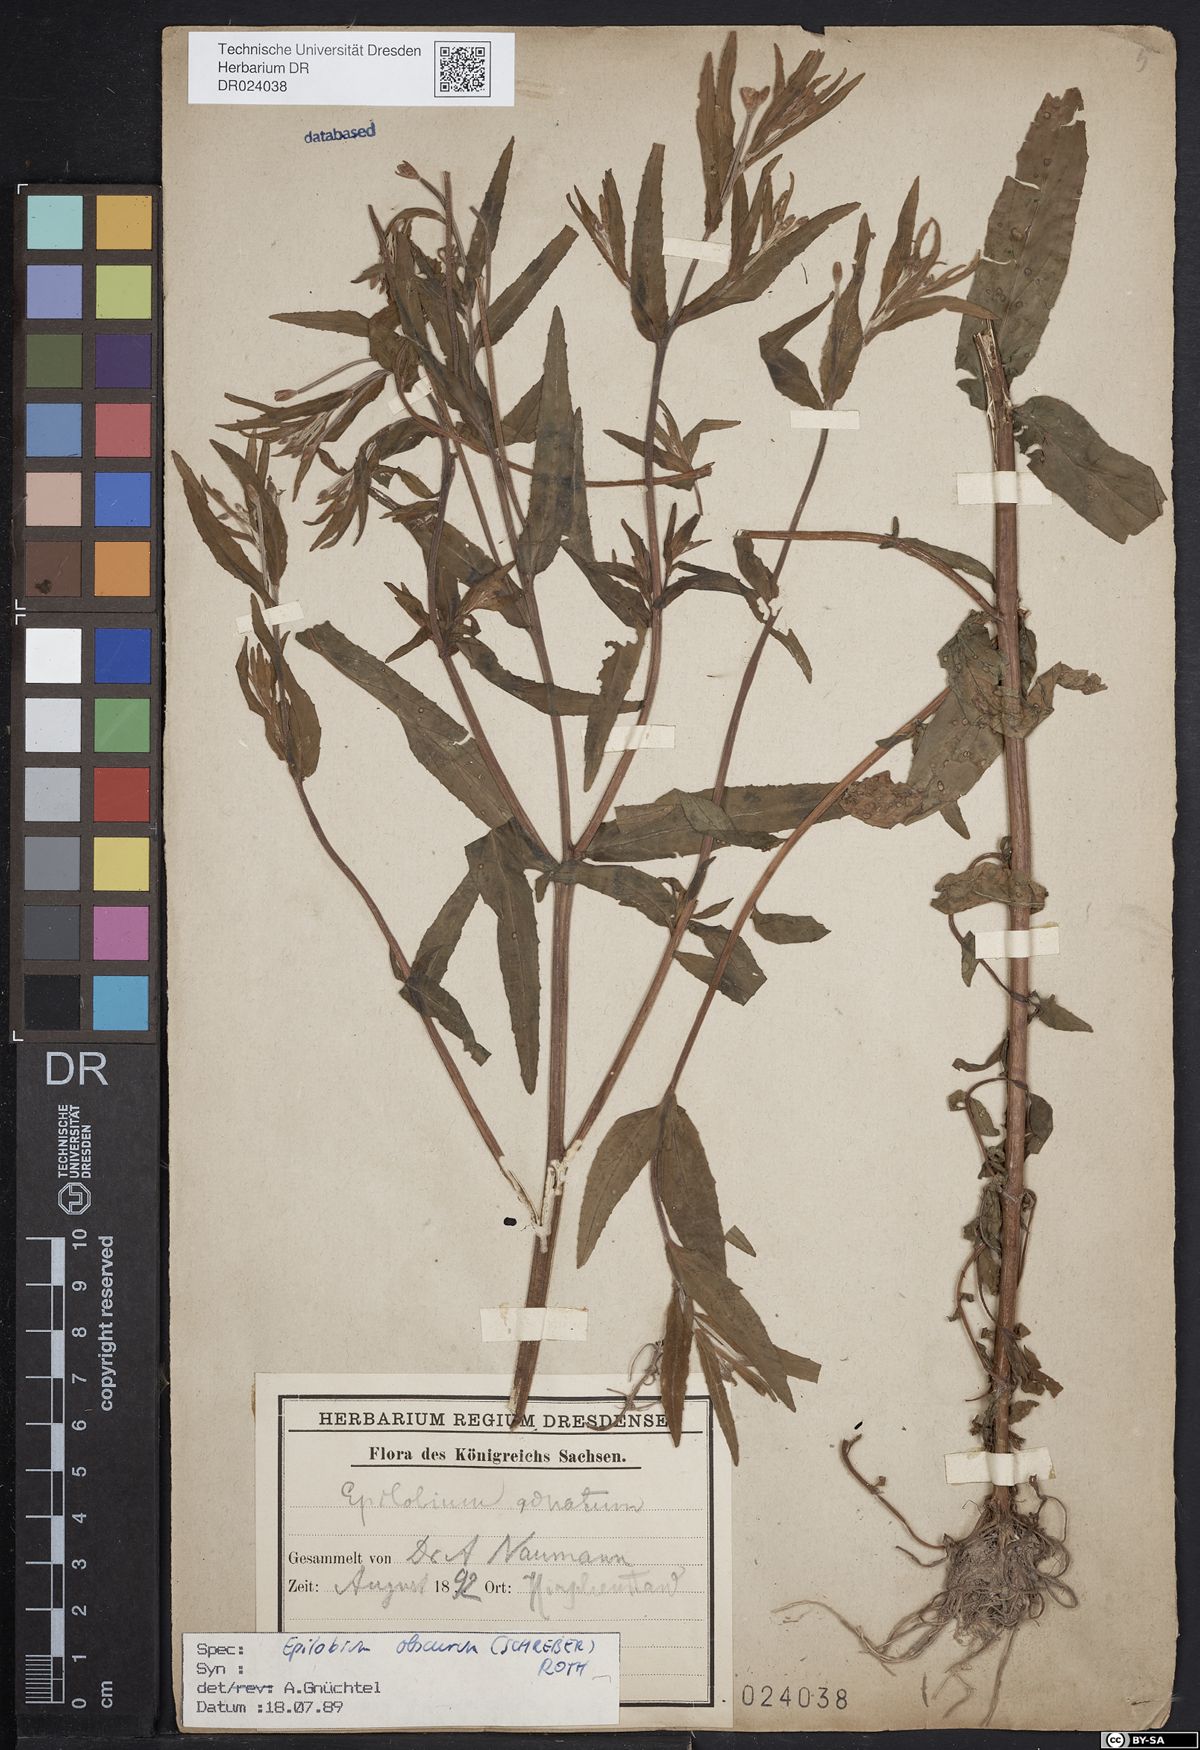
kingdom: Plantae
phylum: Tracheophyta
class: Magnoliopsida
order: Myrtales
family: Onagraceae
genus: Epilobium
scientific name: Epilobium obscurum
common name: Short-fruited willowherb
